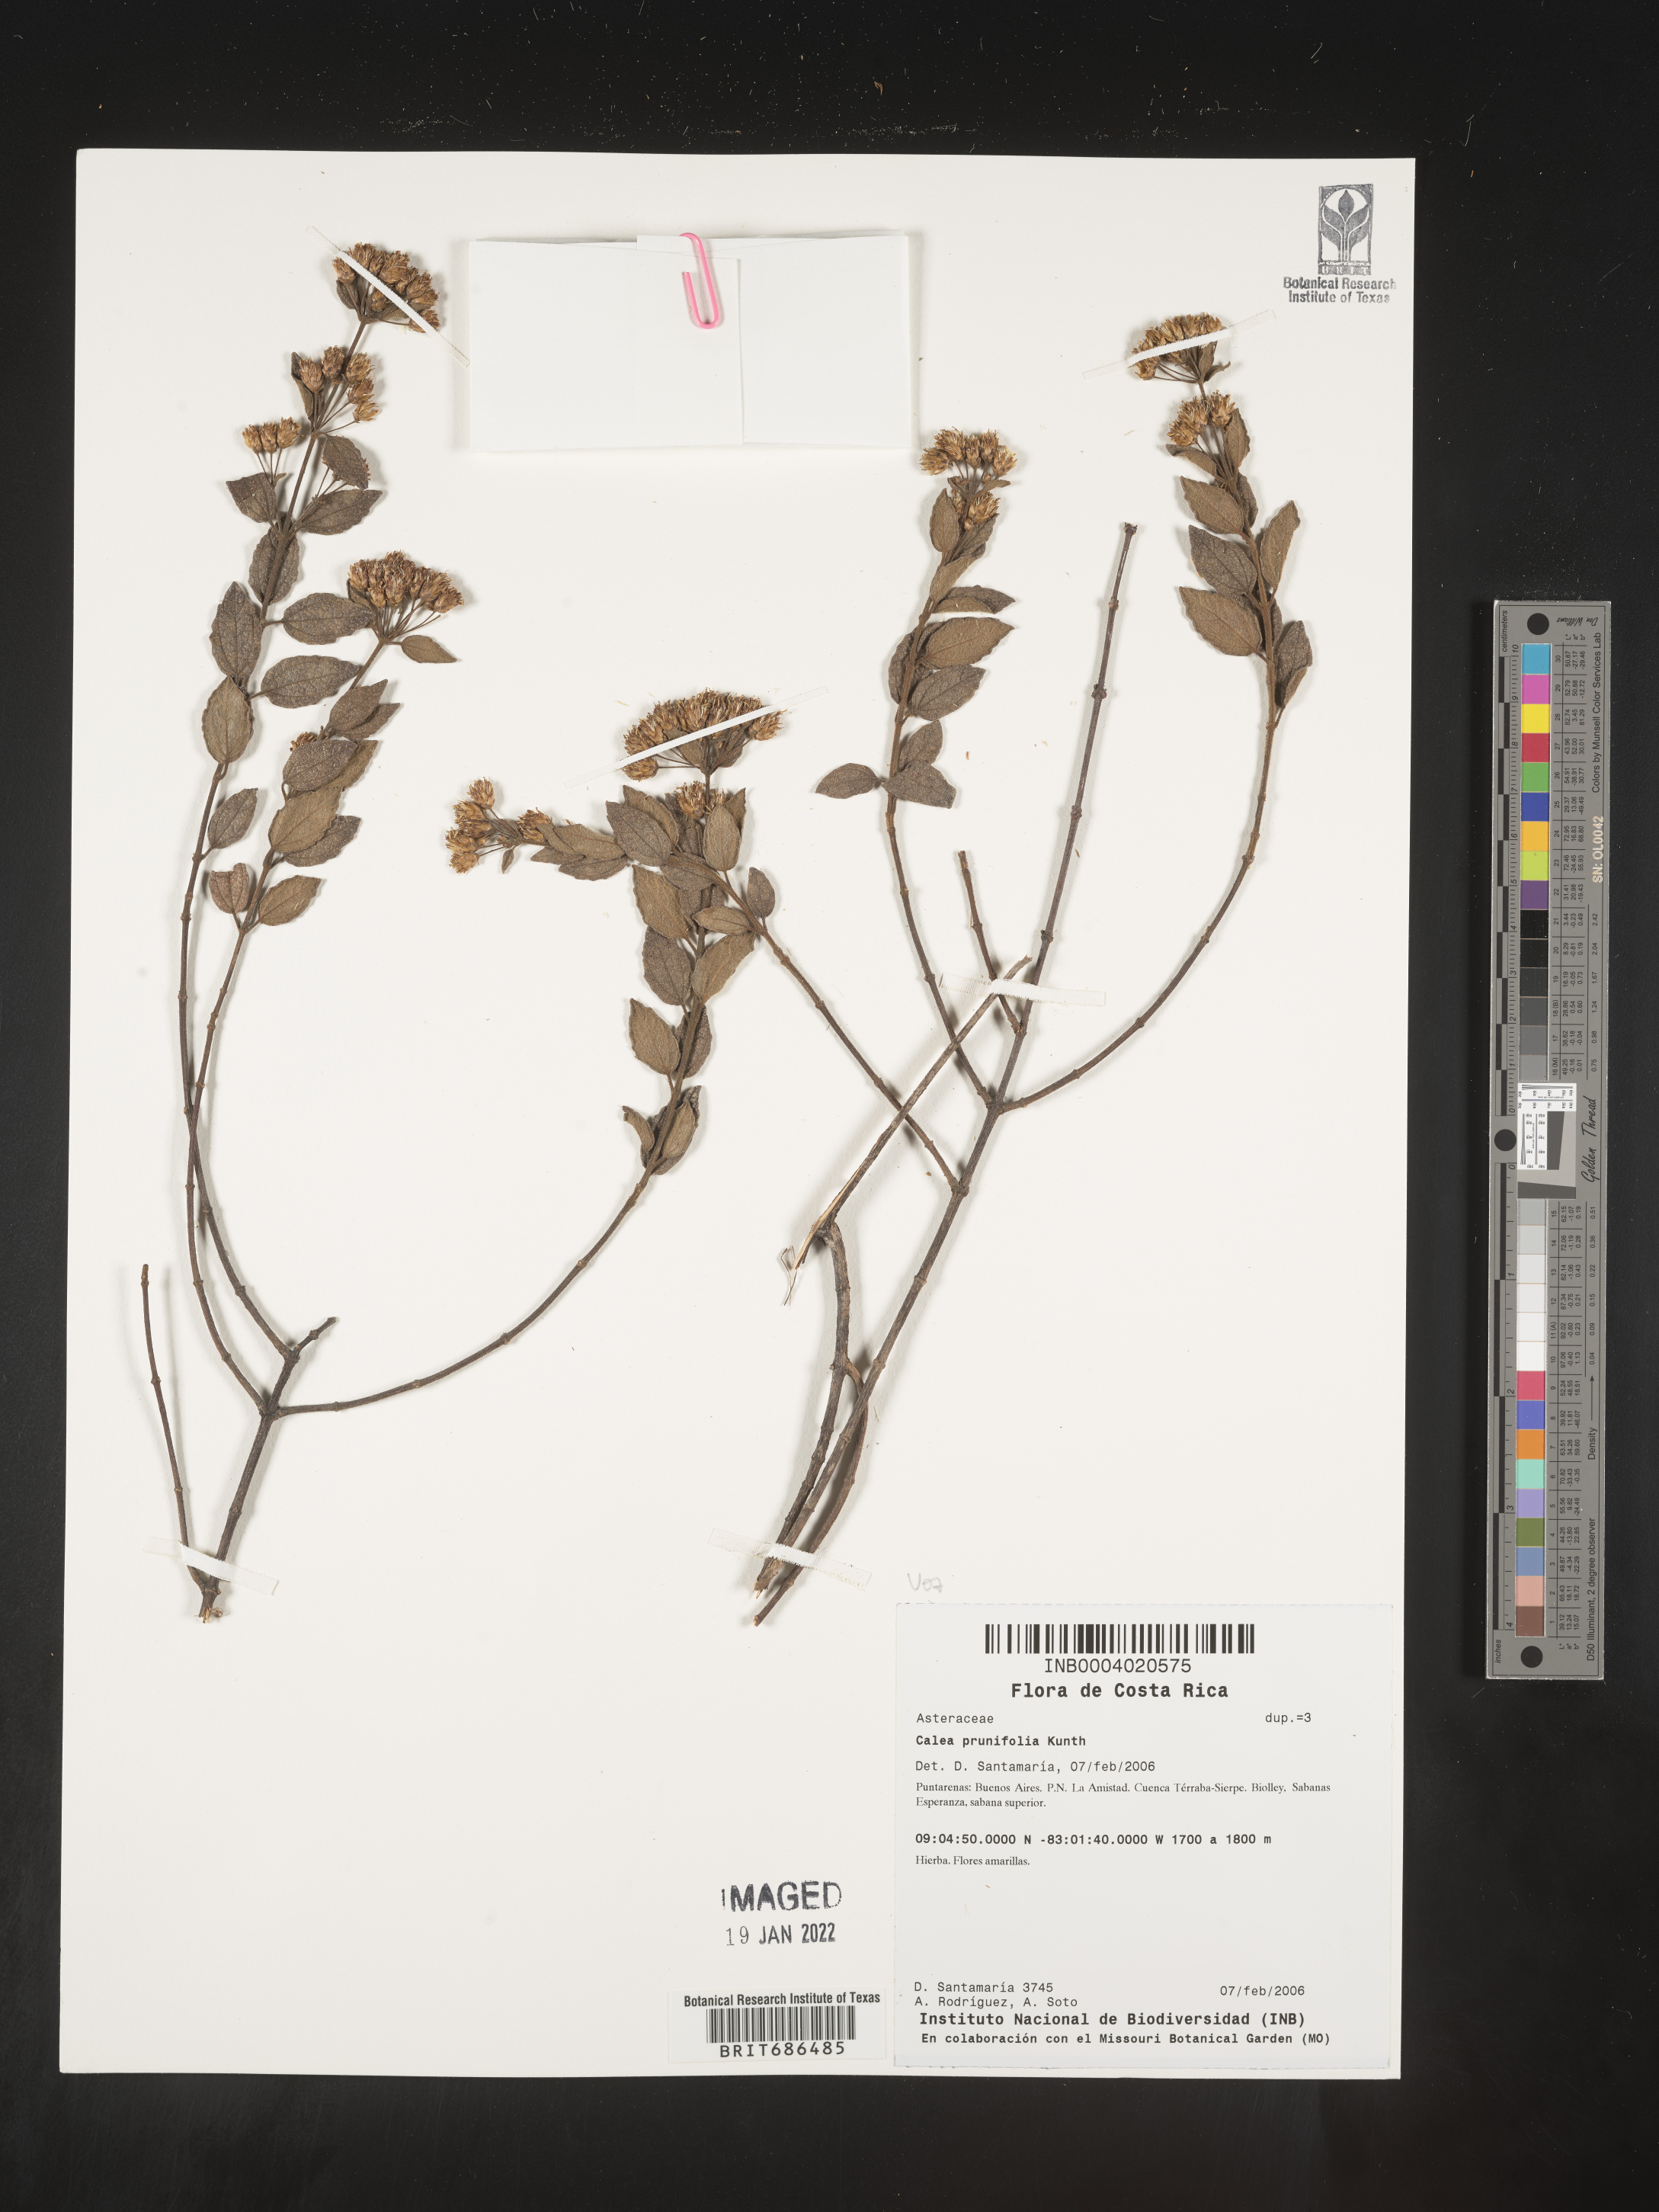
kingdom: Plantae
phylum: Tracheophyta
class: Magnoliopsida
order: Asterales
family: Asteraceae
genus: Calea
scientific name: Calea
